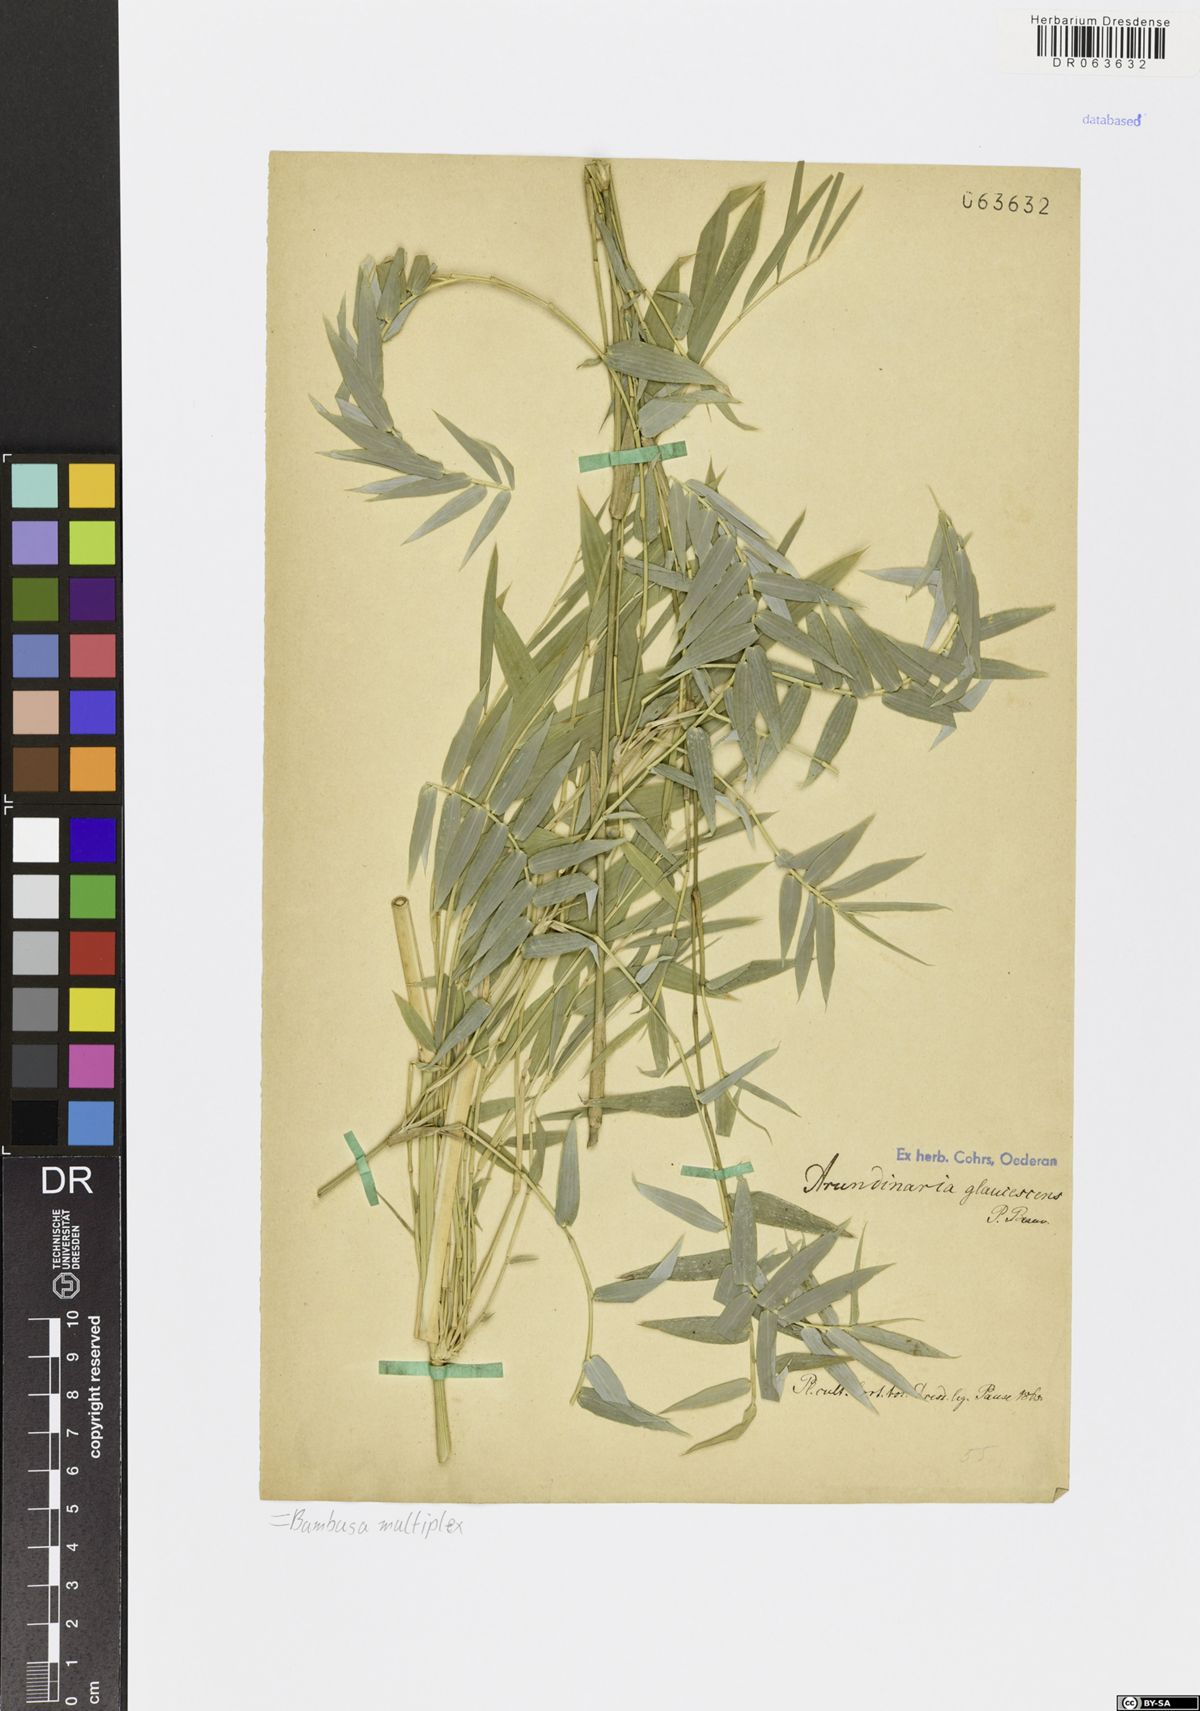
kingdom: Plantae
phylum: Tracheophyta
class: Liliopsida
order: Poales
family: Poaceae
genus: Bambusa
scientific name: Bambusa multiplex
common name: Hedge bamboo
